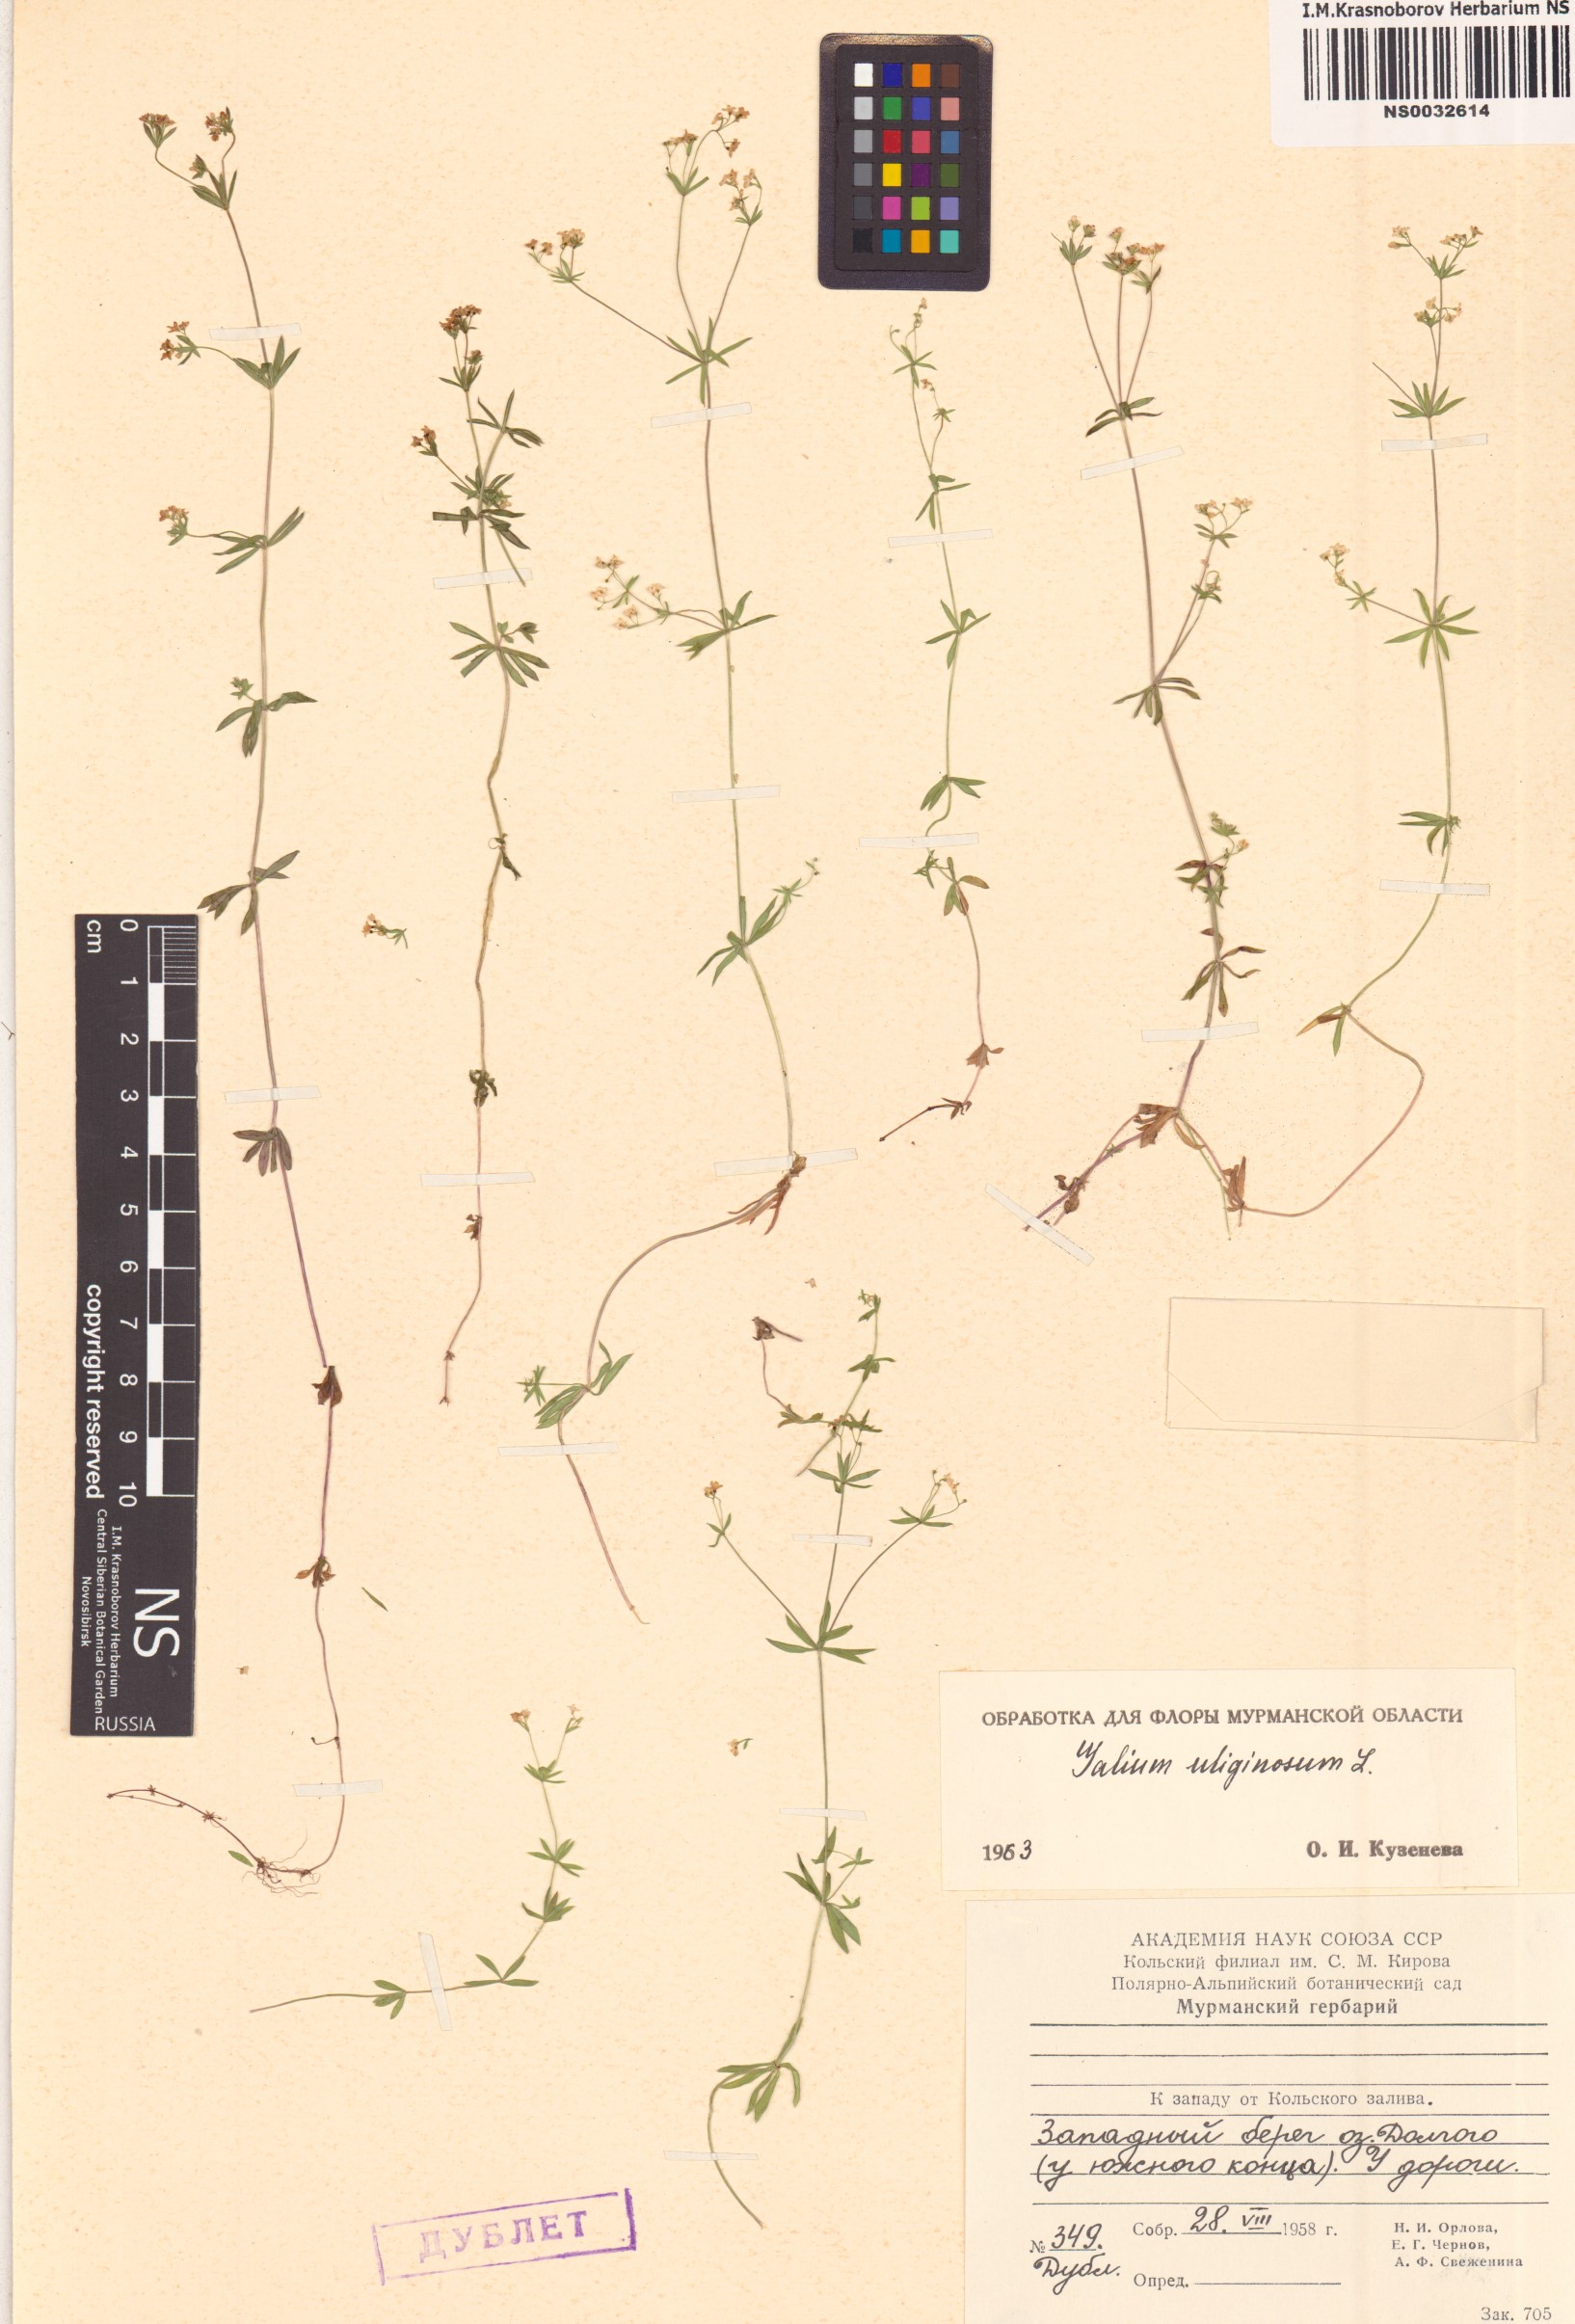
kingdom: Plantae
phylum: Tracheophyta
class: Magnoliopsida
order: Gentianales
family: Rubiaceae
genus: Galium
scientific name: Galium uliginosum
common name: Fen bedstraw
